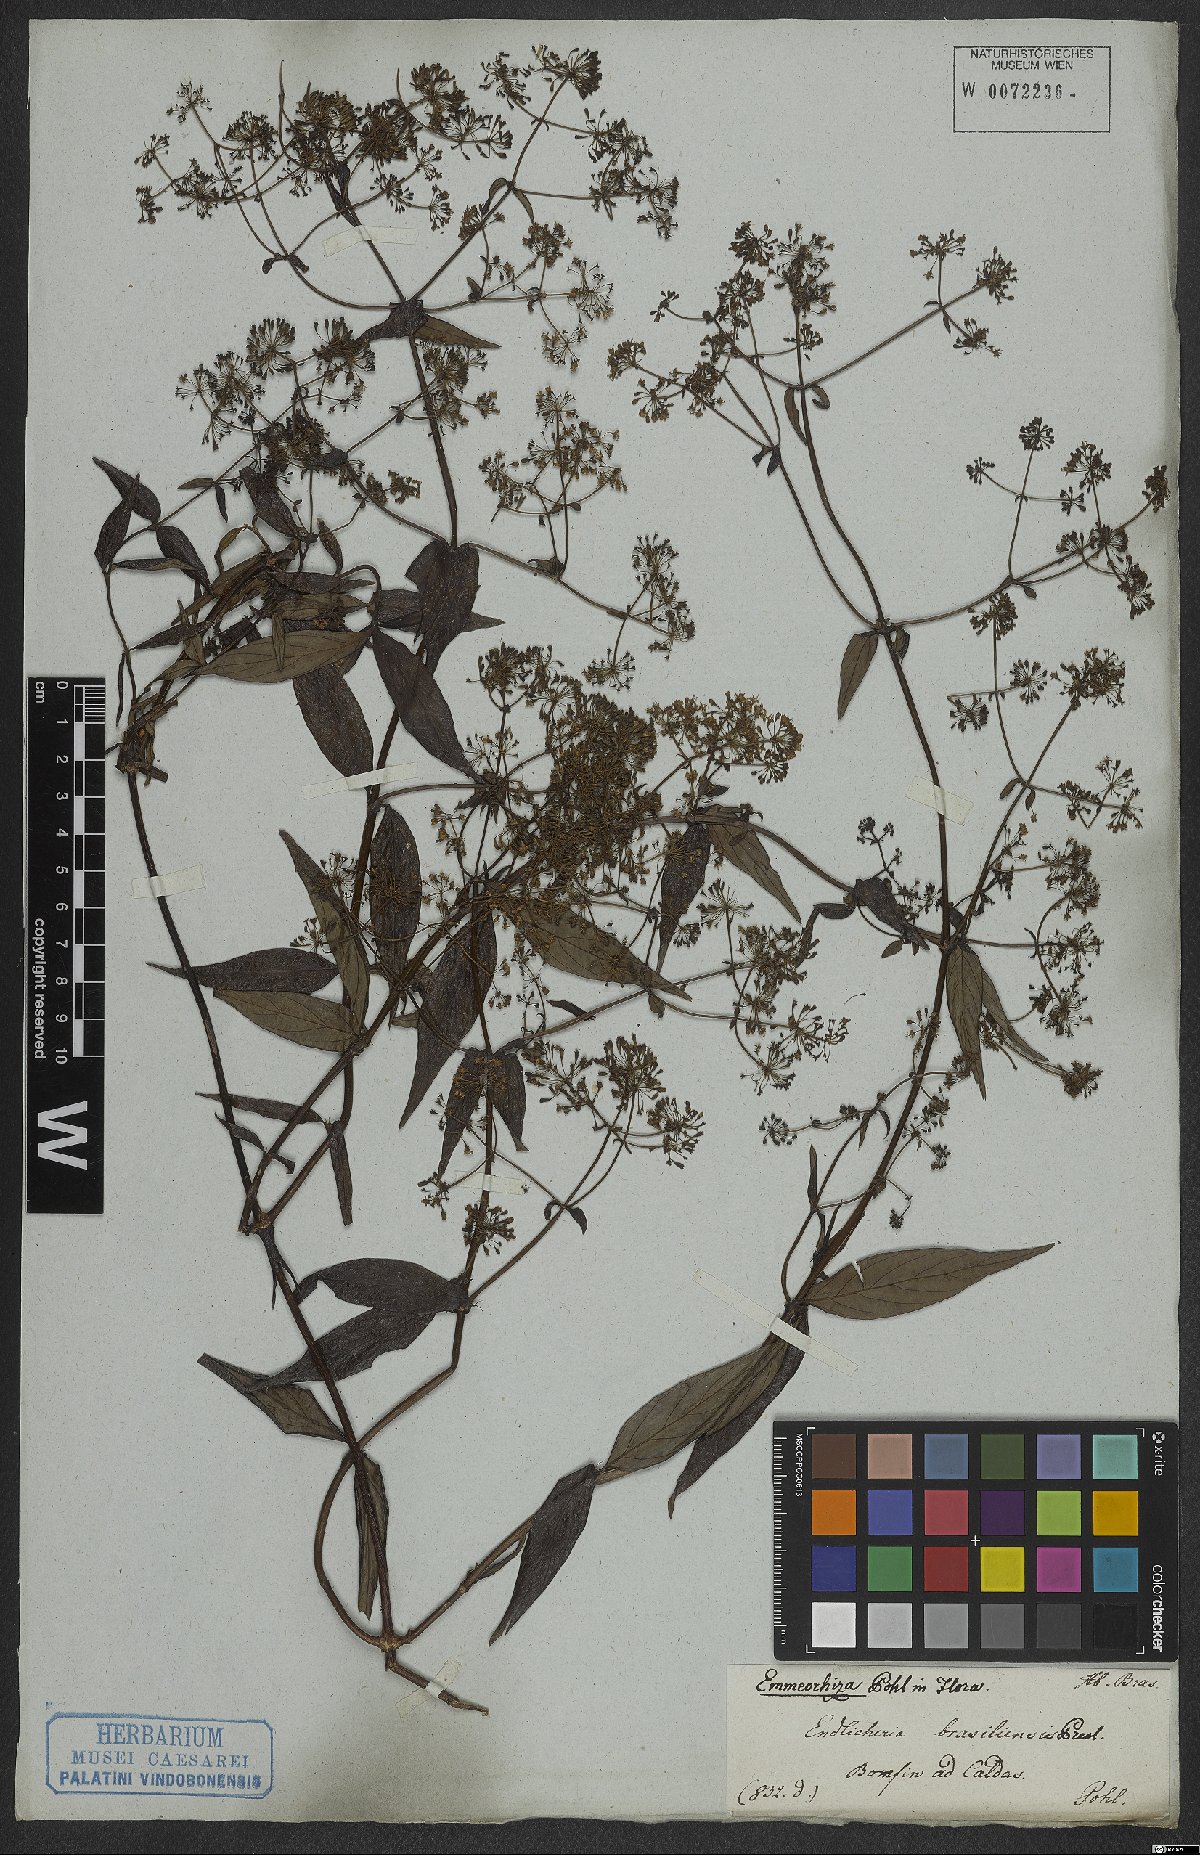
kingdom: Plantae
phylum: Tracheophyta
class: Magnoliopsida
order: Gentianales
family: Rubiaceae
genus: Emmeorhiza
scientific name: Emmeorhiza umbellata
